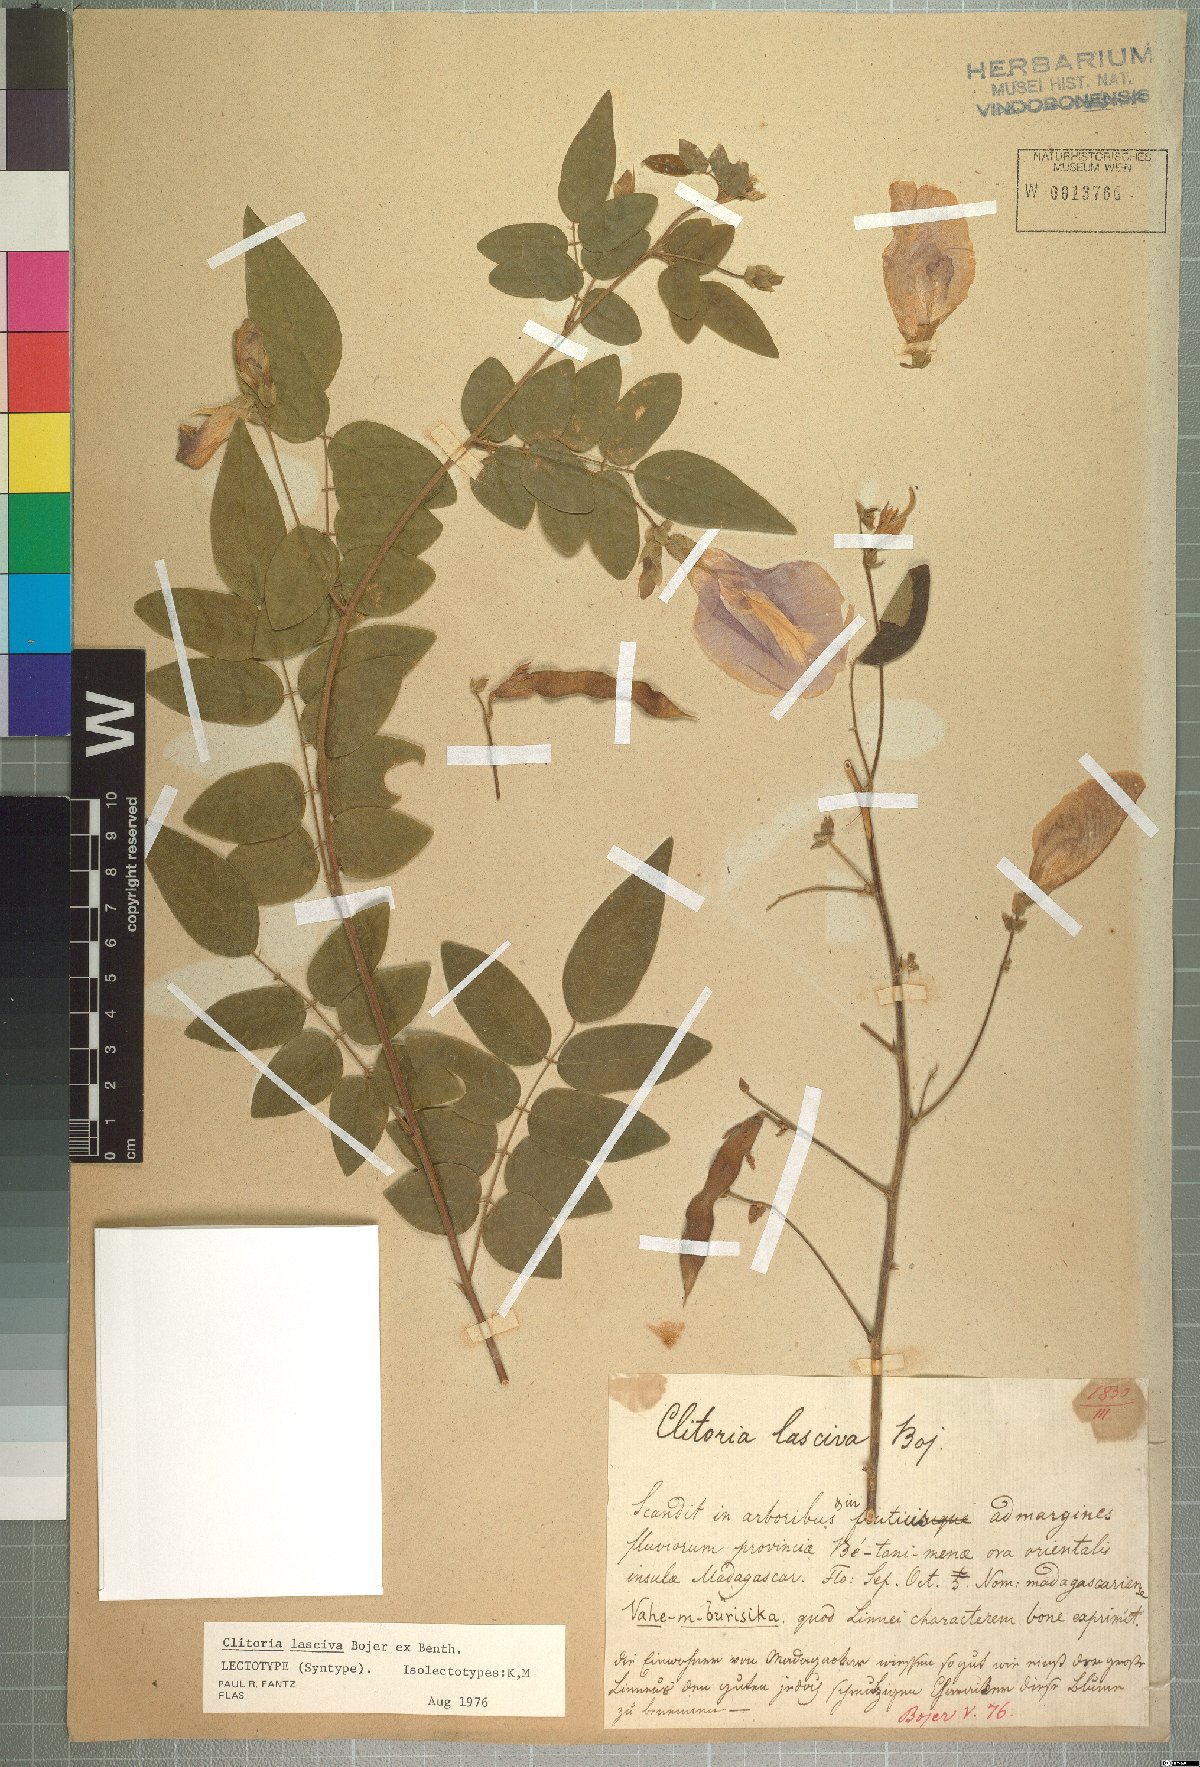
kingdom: Plantae
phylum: Tracheophyta
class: Magnoliopsida
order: Fabales
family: Fabaceae
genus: Clitoria
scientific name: Clitoria lasciva
